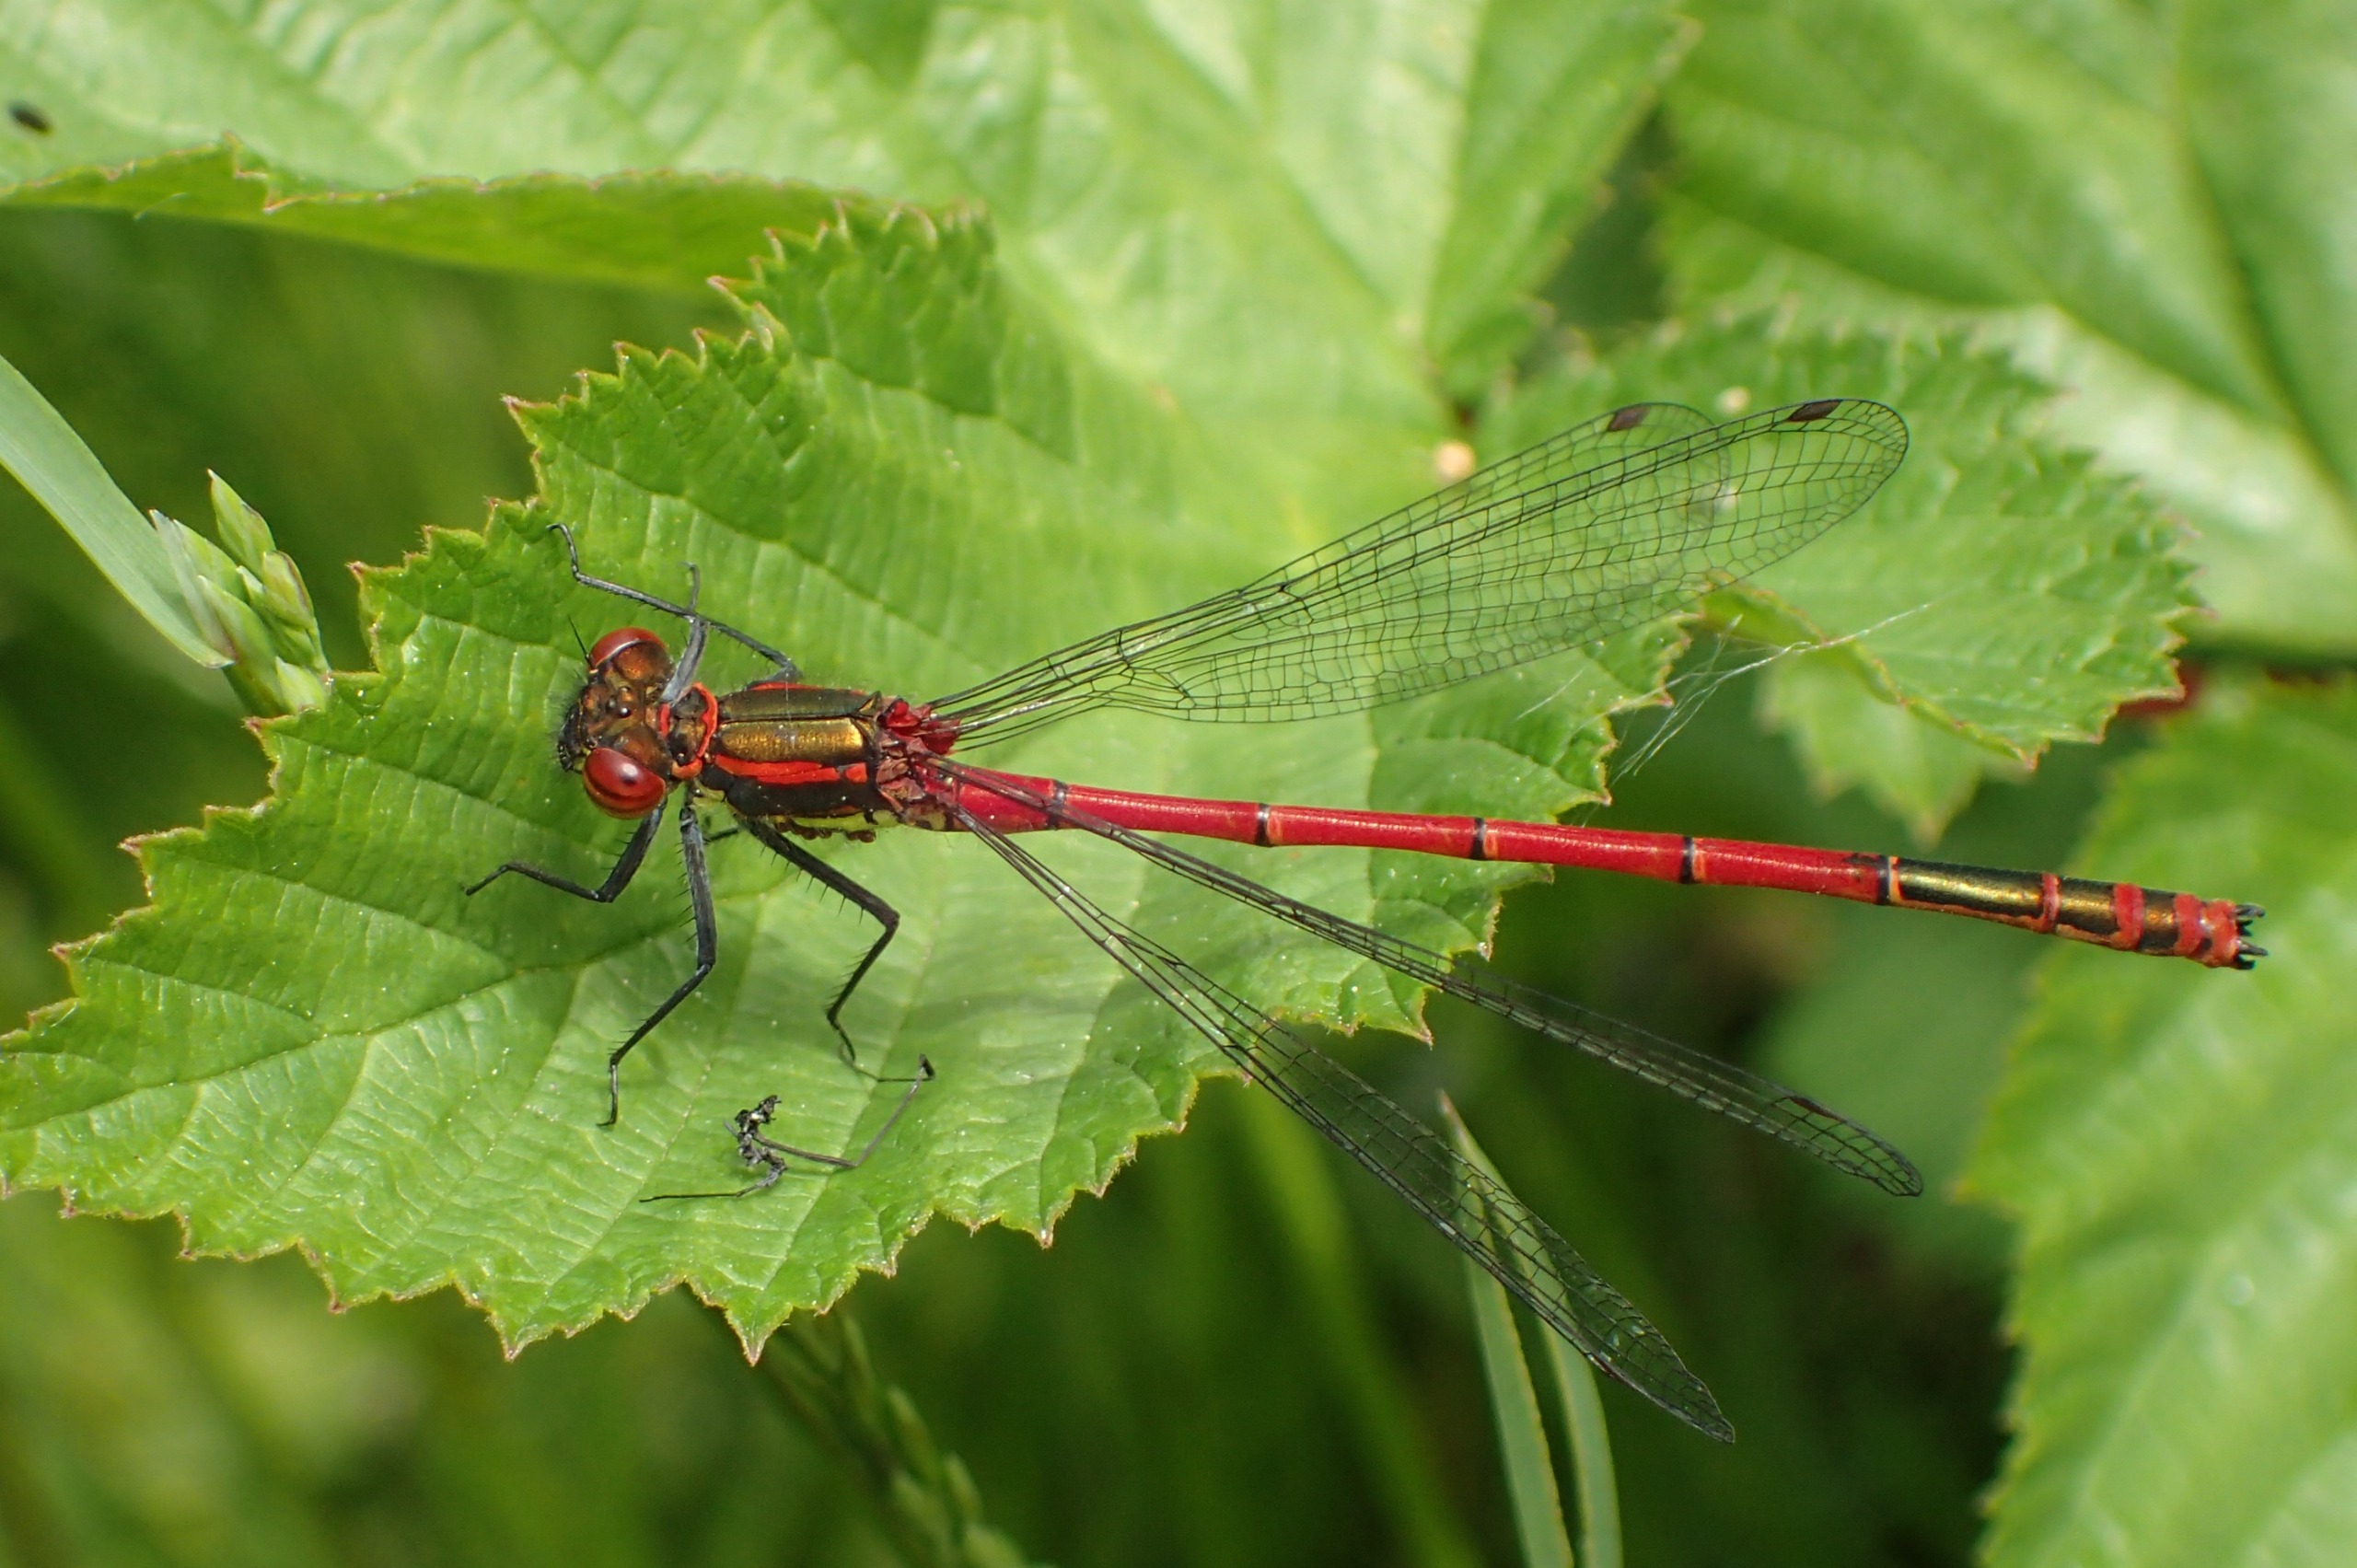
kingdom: Animalia
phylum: Arthropoda
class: Insecta
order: Odonata
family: Coenagrionidae
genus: Pyrrhosoma
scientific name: Pyrrhosoma nymphula
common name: Rød vandnymfe
